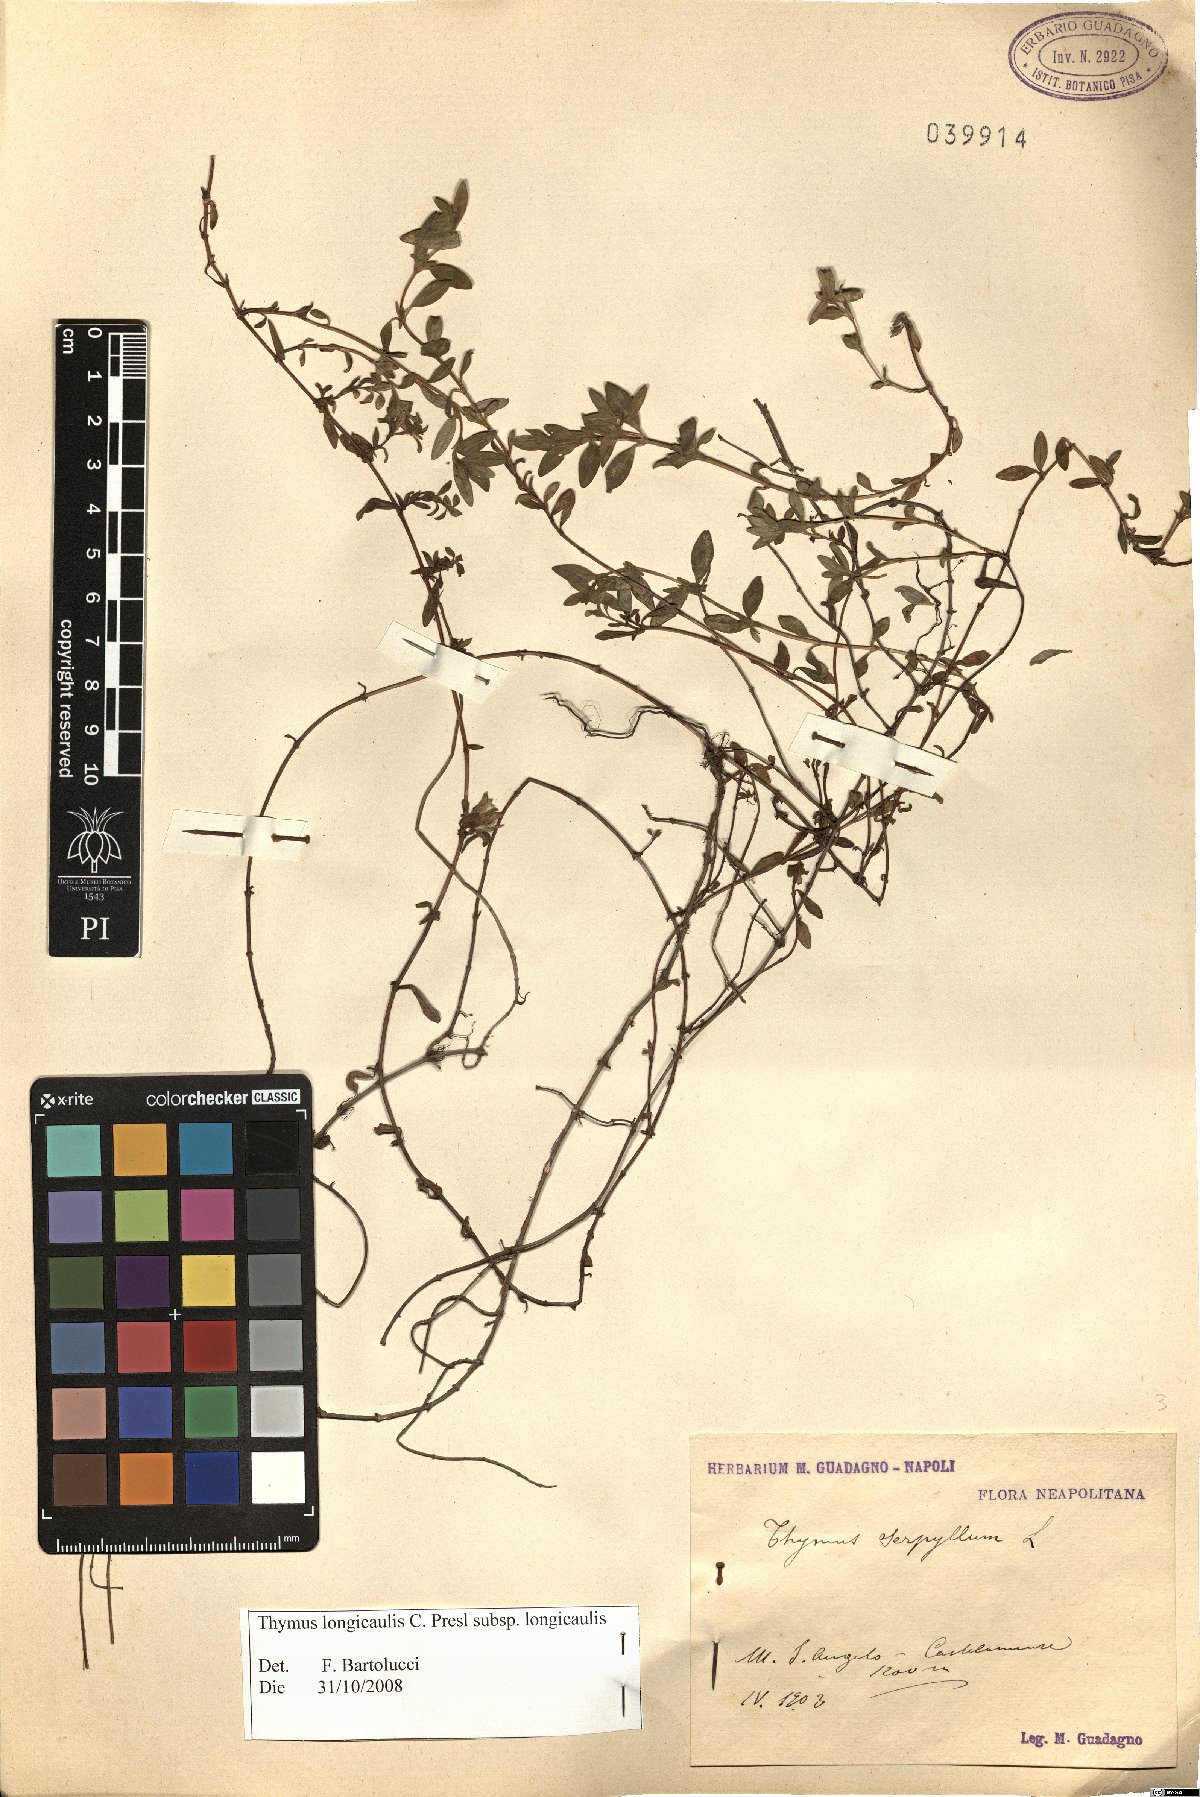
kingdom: Plantae
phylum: Tracheophyta
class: Magnoliopsida
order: Lamiales
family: Lamiaceae
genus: Thymus
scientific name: Thymus longicaulis
